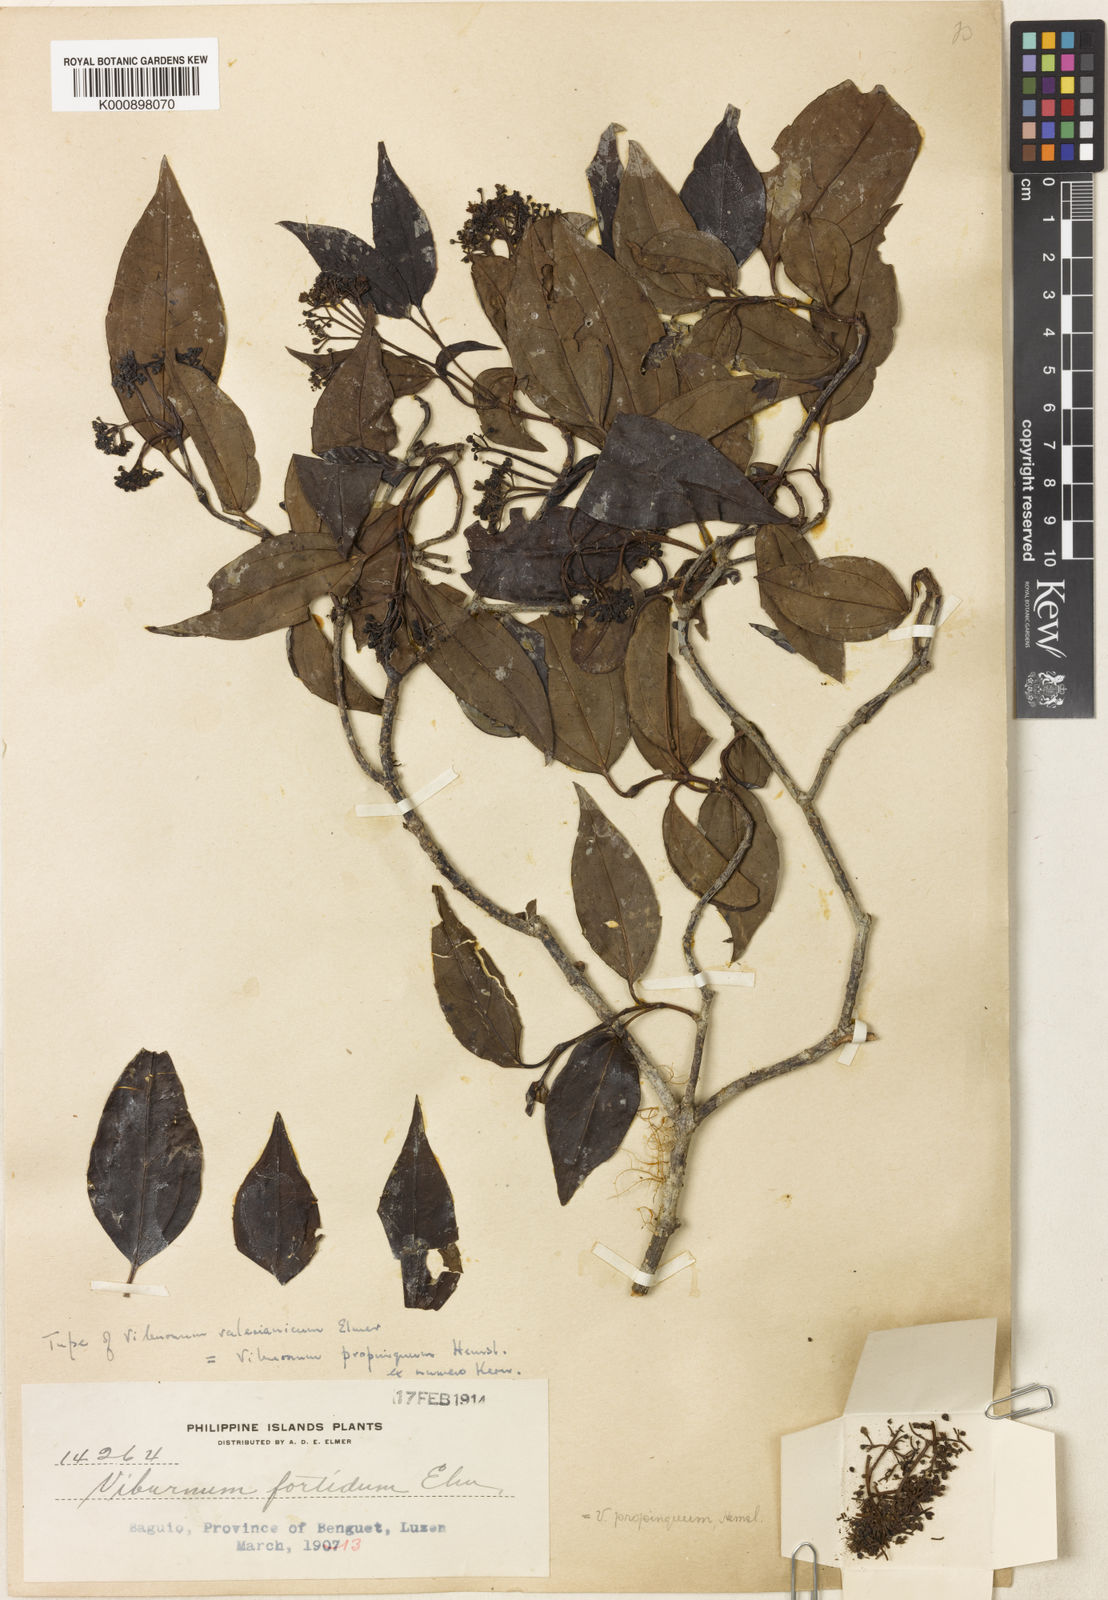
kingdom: Plantae
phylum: Tracheophyta
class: Magnoliopsida
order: Dipsacales
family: Viburnaceae
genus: Viburnum
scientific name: Viburnum propinquum
